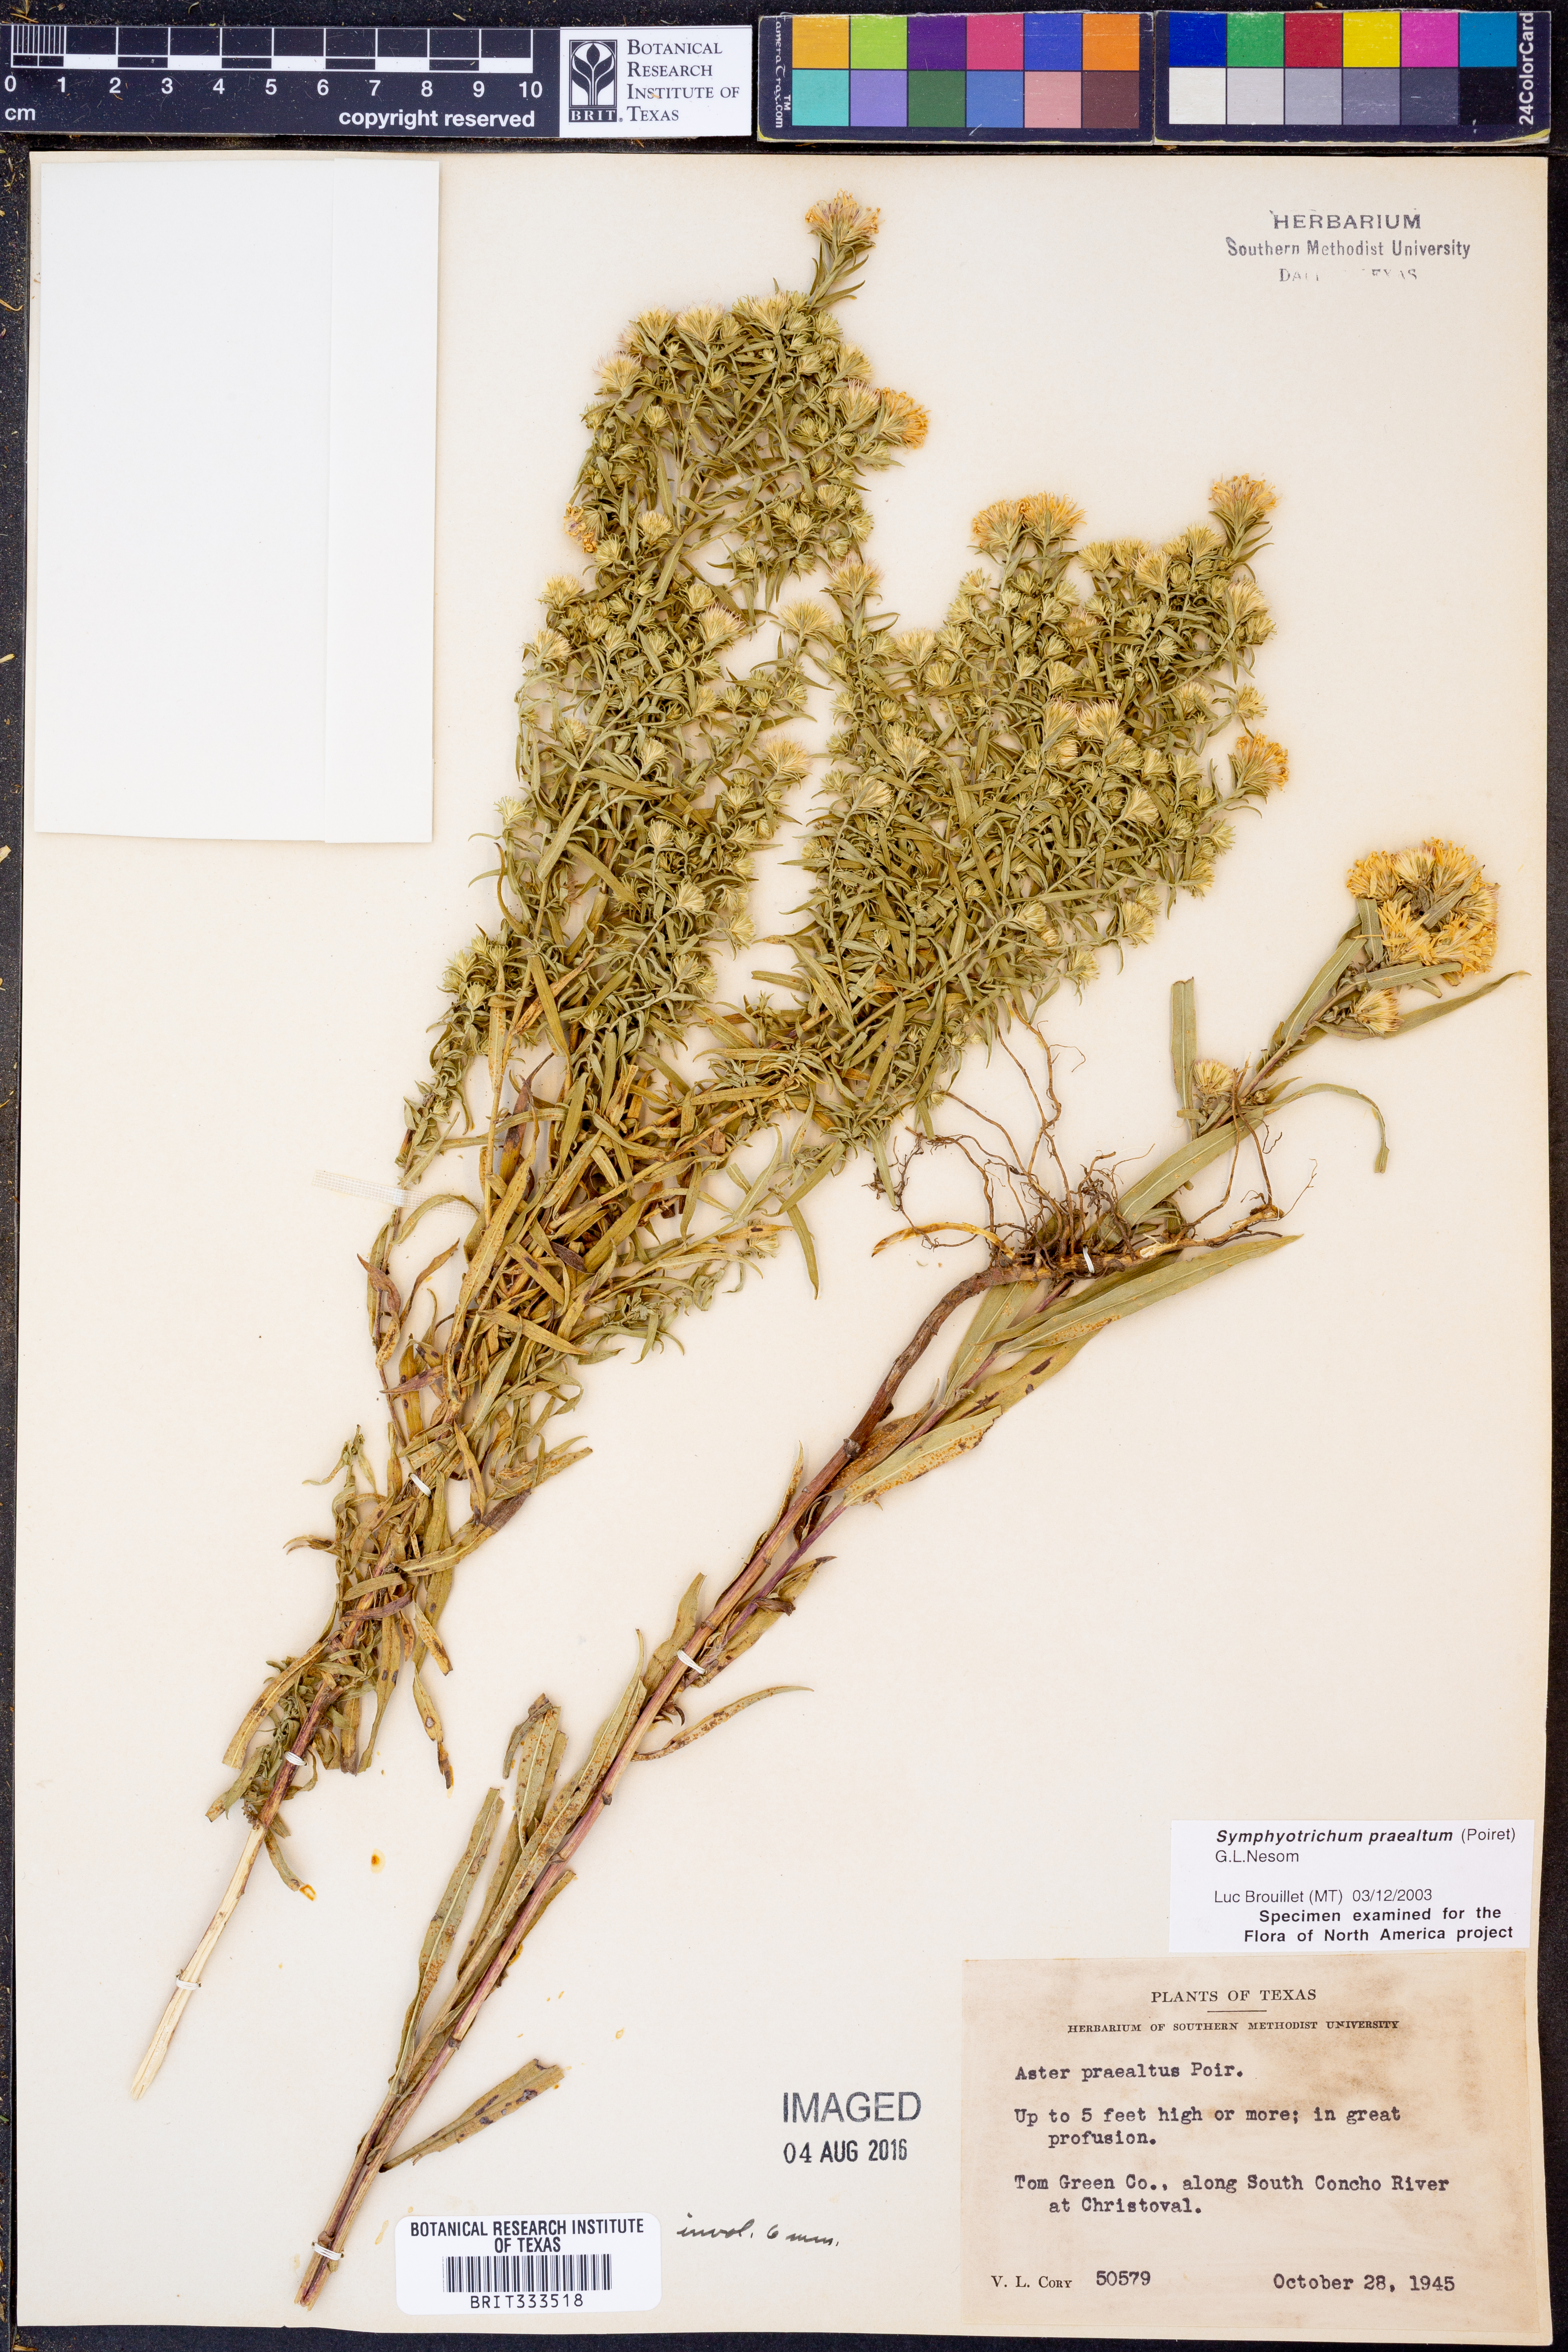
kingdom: Plantae
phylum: Tracheophyta
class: Magnoliopsida
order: Asterales
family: Asteraceae
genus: Symphyotrichum
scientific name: Symphyotrichum praealtum
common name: Willow aster
